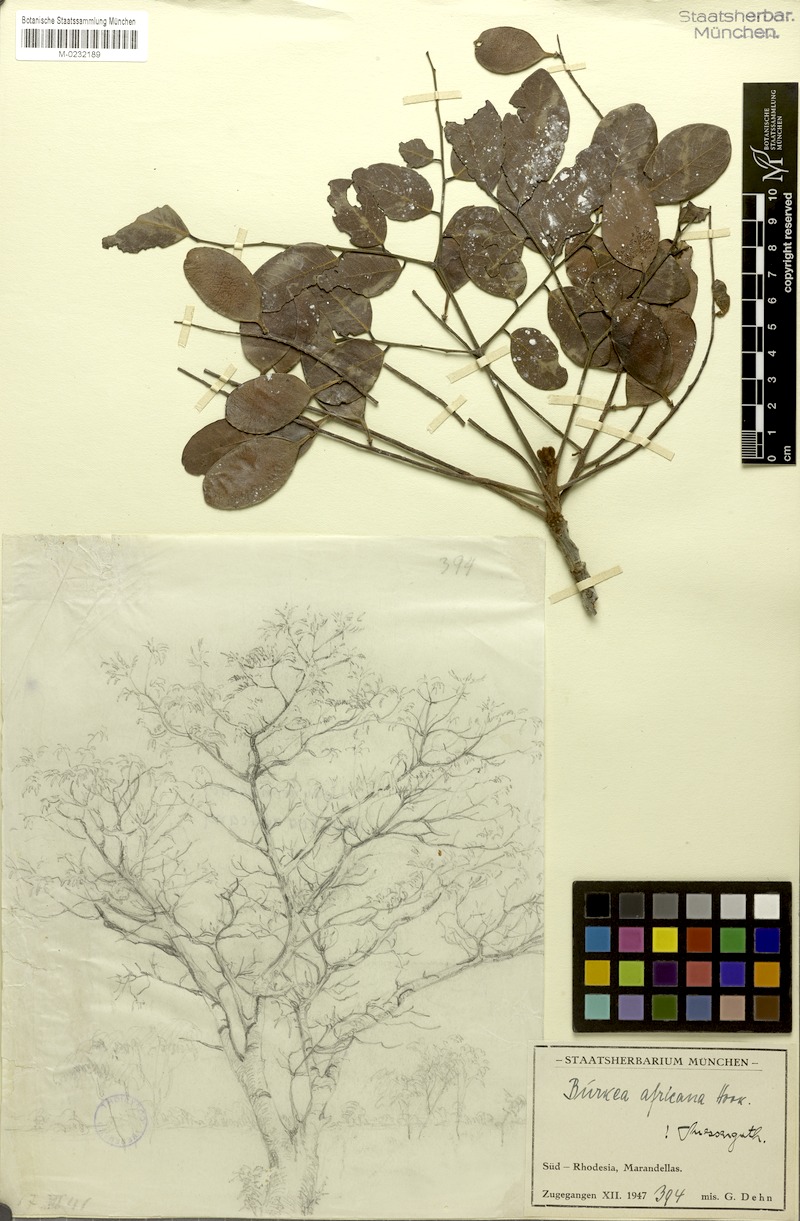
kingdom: Plantae
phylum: Tracheophyta
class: Magnoliopsida
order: Fabales
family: Fabaceae
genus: Burkea
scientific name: Burkea africana
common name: Mkalati tree
